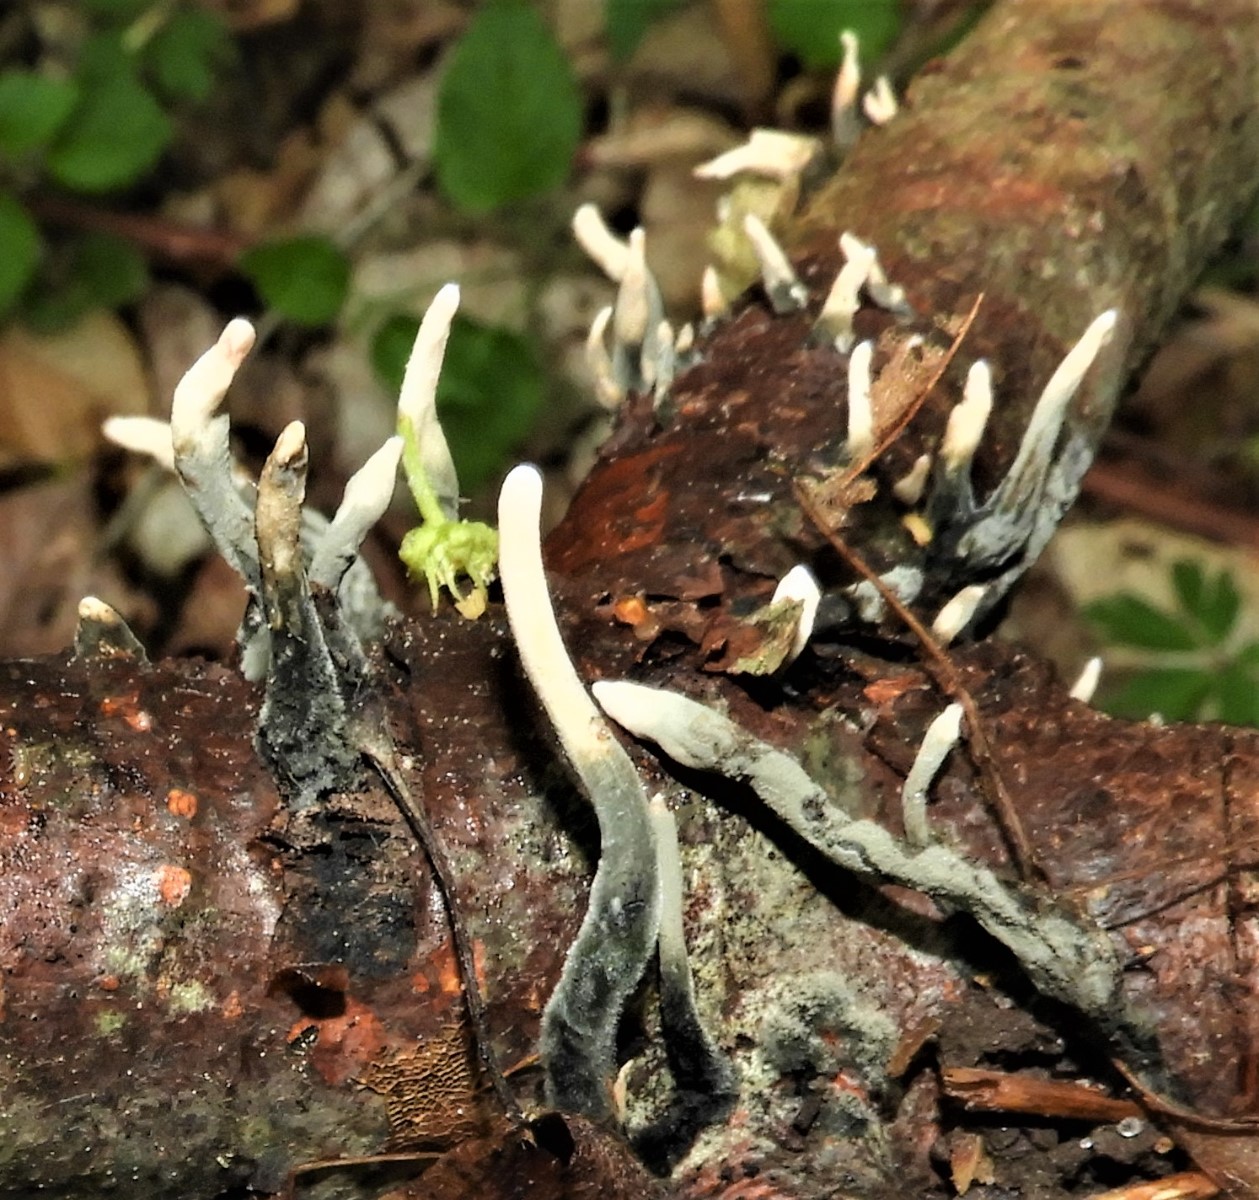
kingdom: Fungi
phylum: Ascomycota
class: Sordariomycetes
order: Xylariales
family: Xylariaceae
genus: Xylaria
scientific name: Xylaria hypoxylon
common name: grenet stødsvamp
